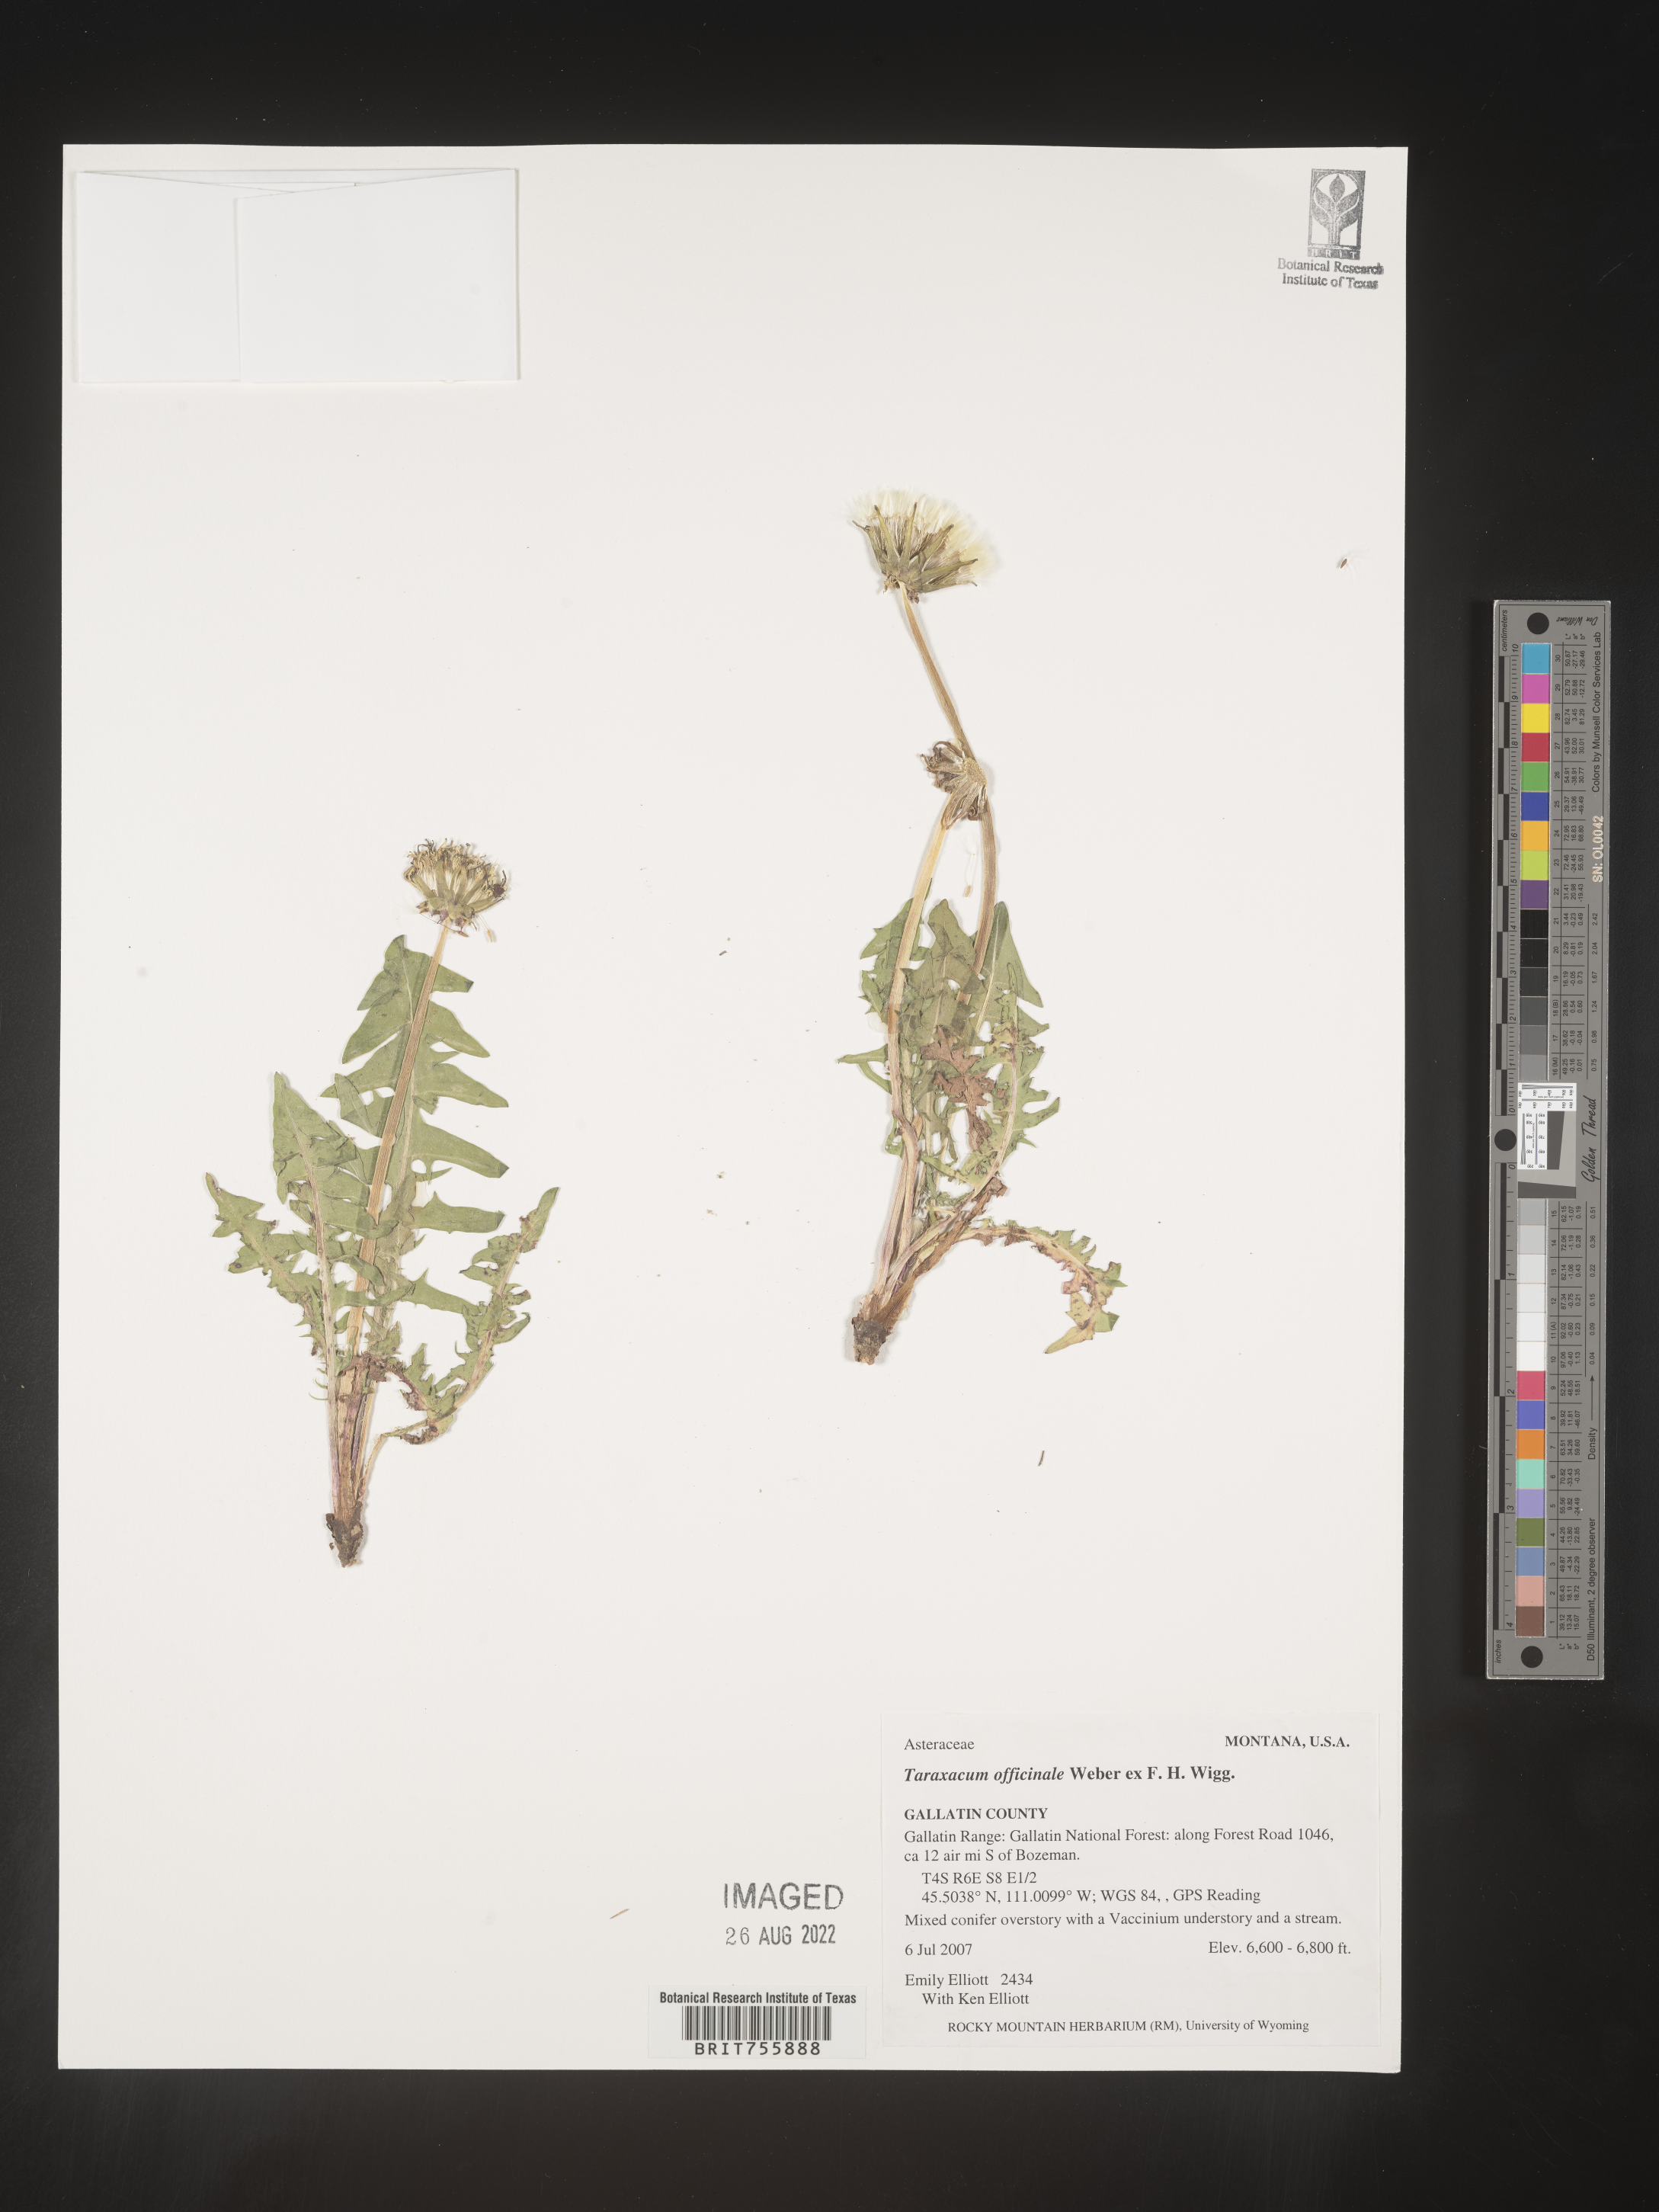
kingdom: Plantae
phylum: Tracheophyta
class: Magnoliopsida
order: Asterales
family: Asteraceae
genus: Taraxacum
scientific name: Taraxacum officinale
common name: Common dandelion
